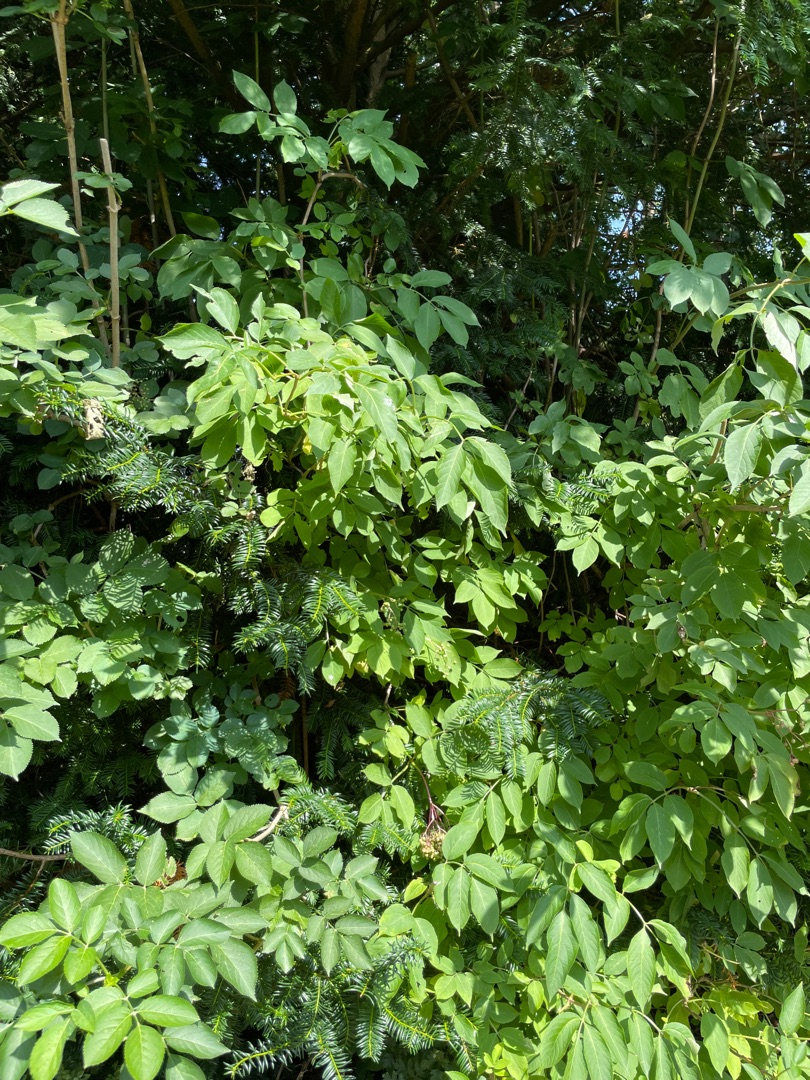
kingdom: Plantae
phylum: Tracheophyta
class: Magnoliopsida
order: Dipsacales
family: Viburnaceae
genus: Sambucus
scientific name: Sambucus nigra
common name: Almindelig hyld
